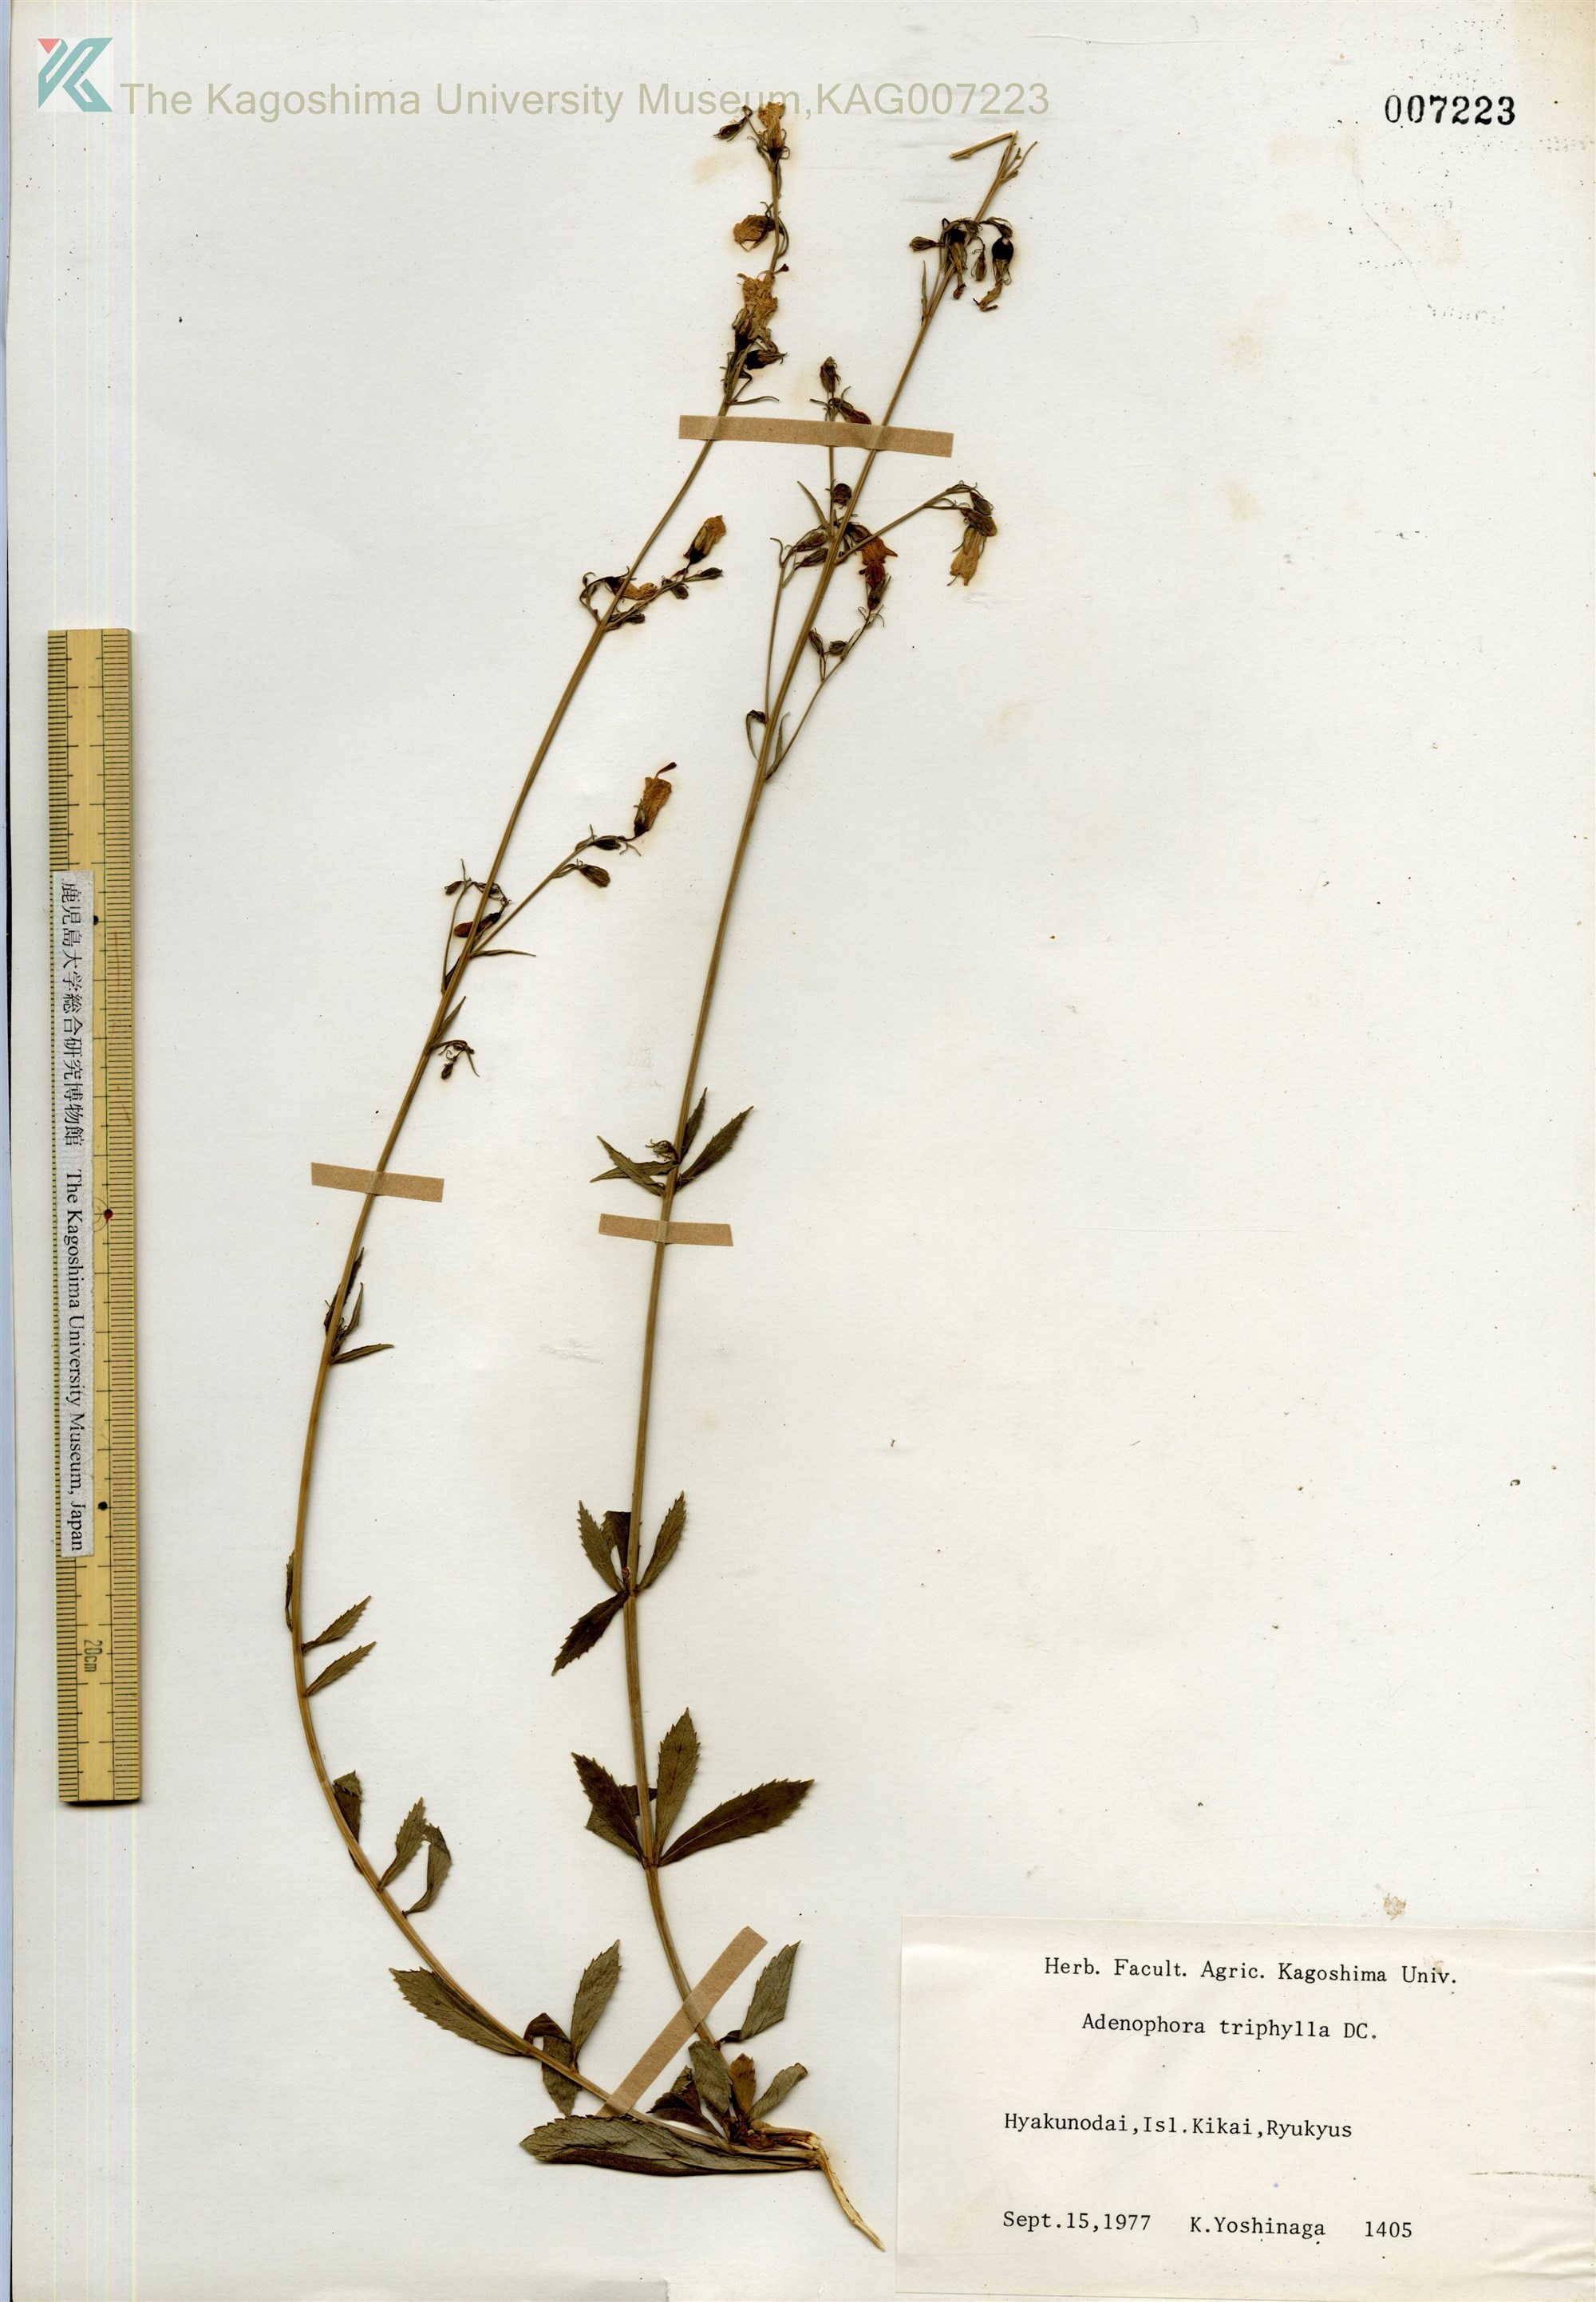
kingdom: Plantae
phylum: Tracheophyta
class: Magnoliopsida
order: Asterales
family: Campanulaceae
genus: Adenophora
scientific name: Adenophora triphylla
